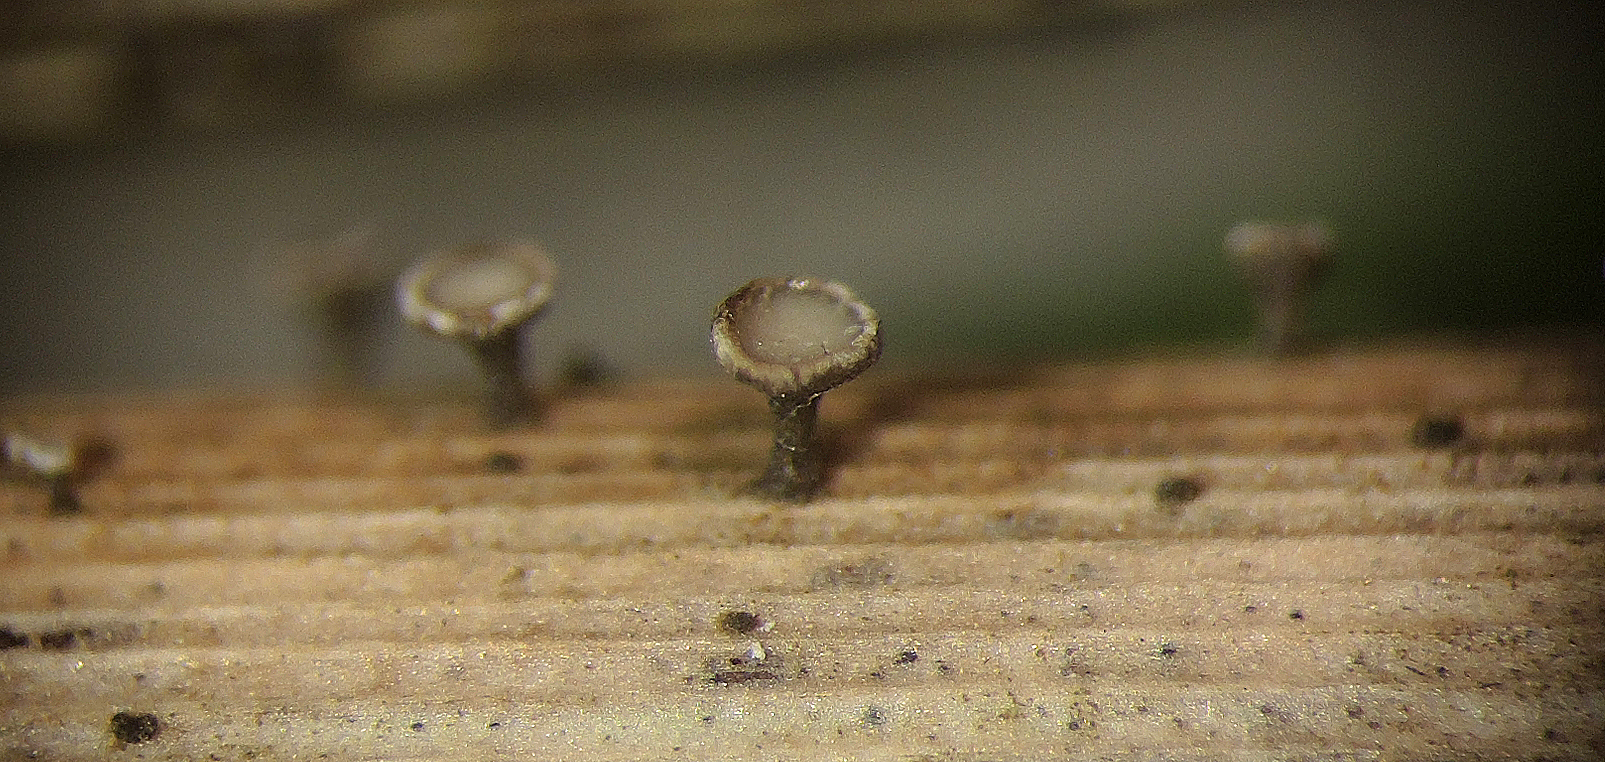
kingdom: Fungi
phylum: Ascomycota
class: Leotiomycetes
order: Helotiales
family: Helotiaceae
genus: Crocicreas
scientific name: Crocicreas furvum
